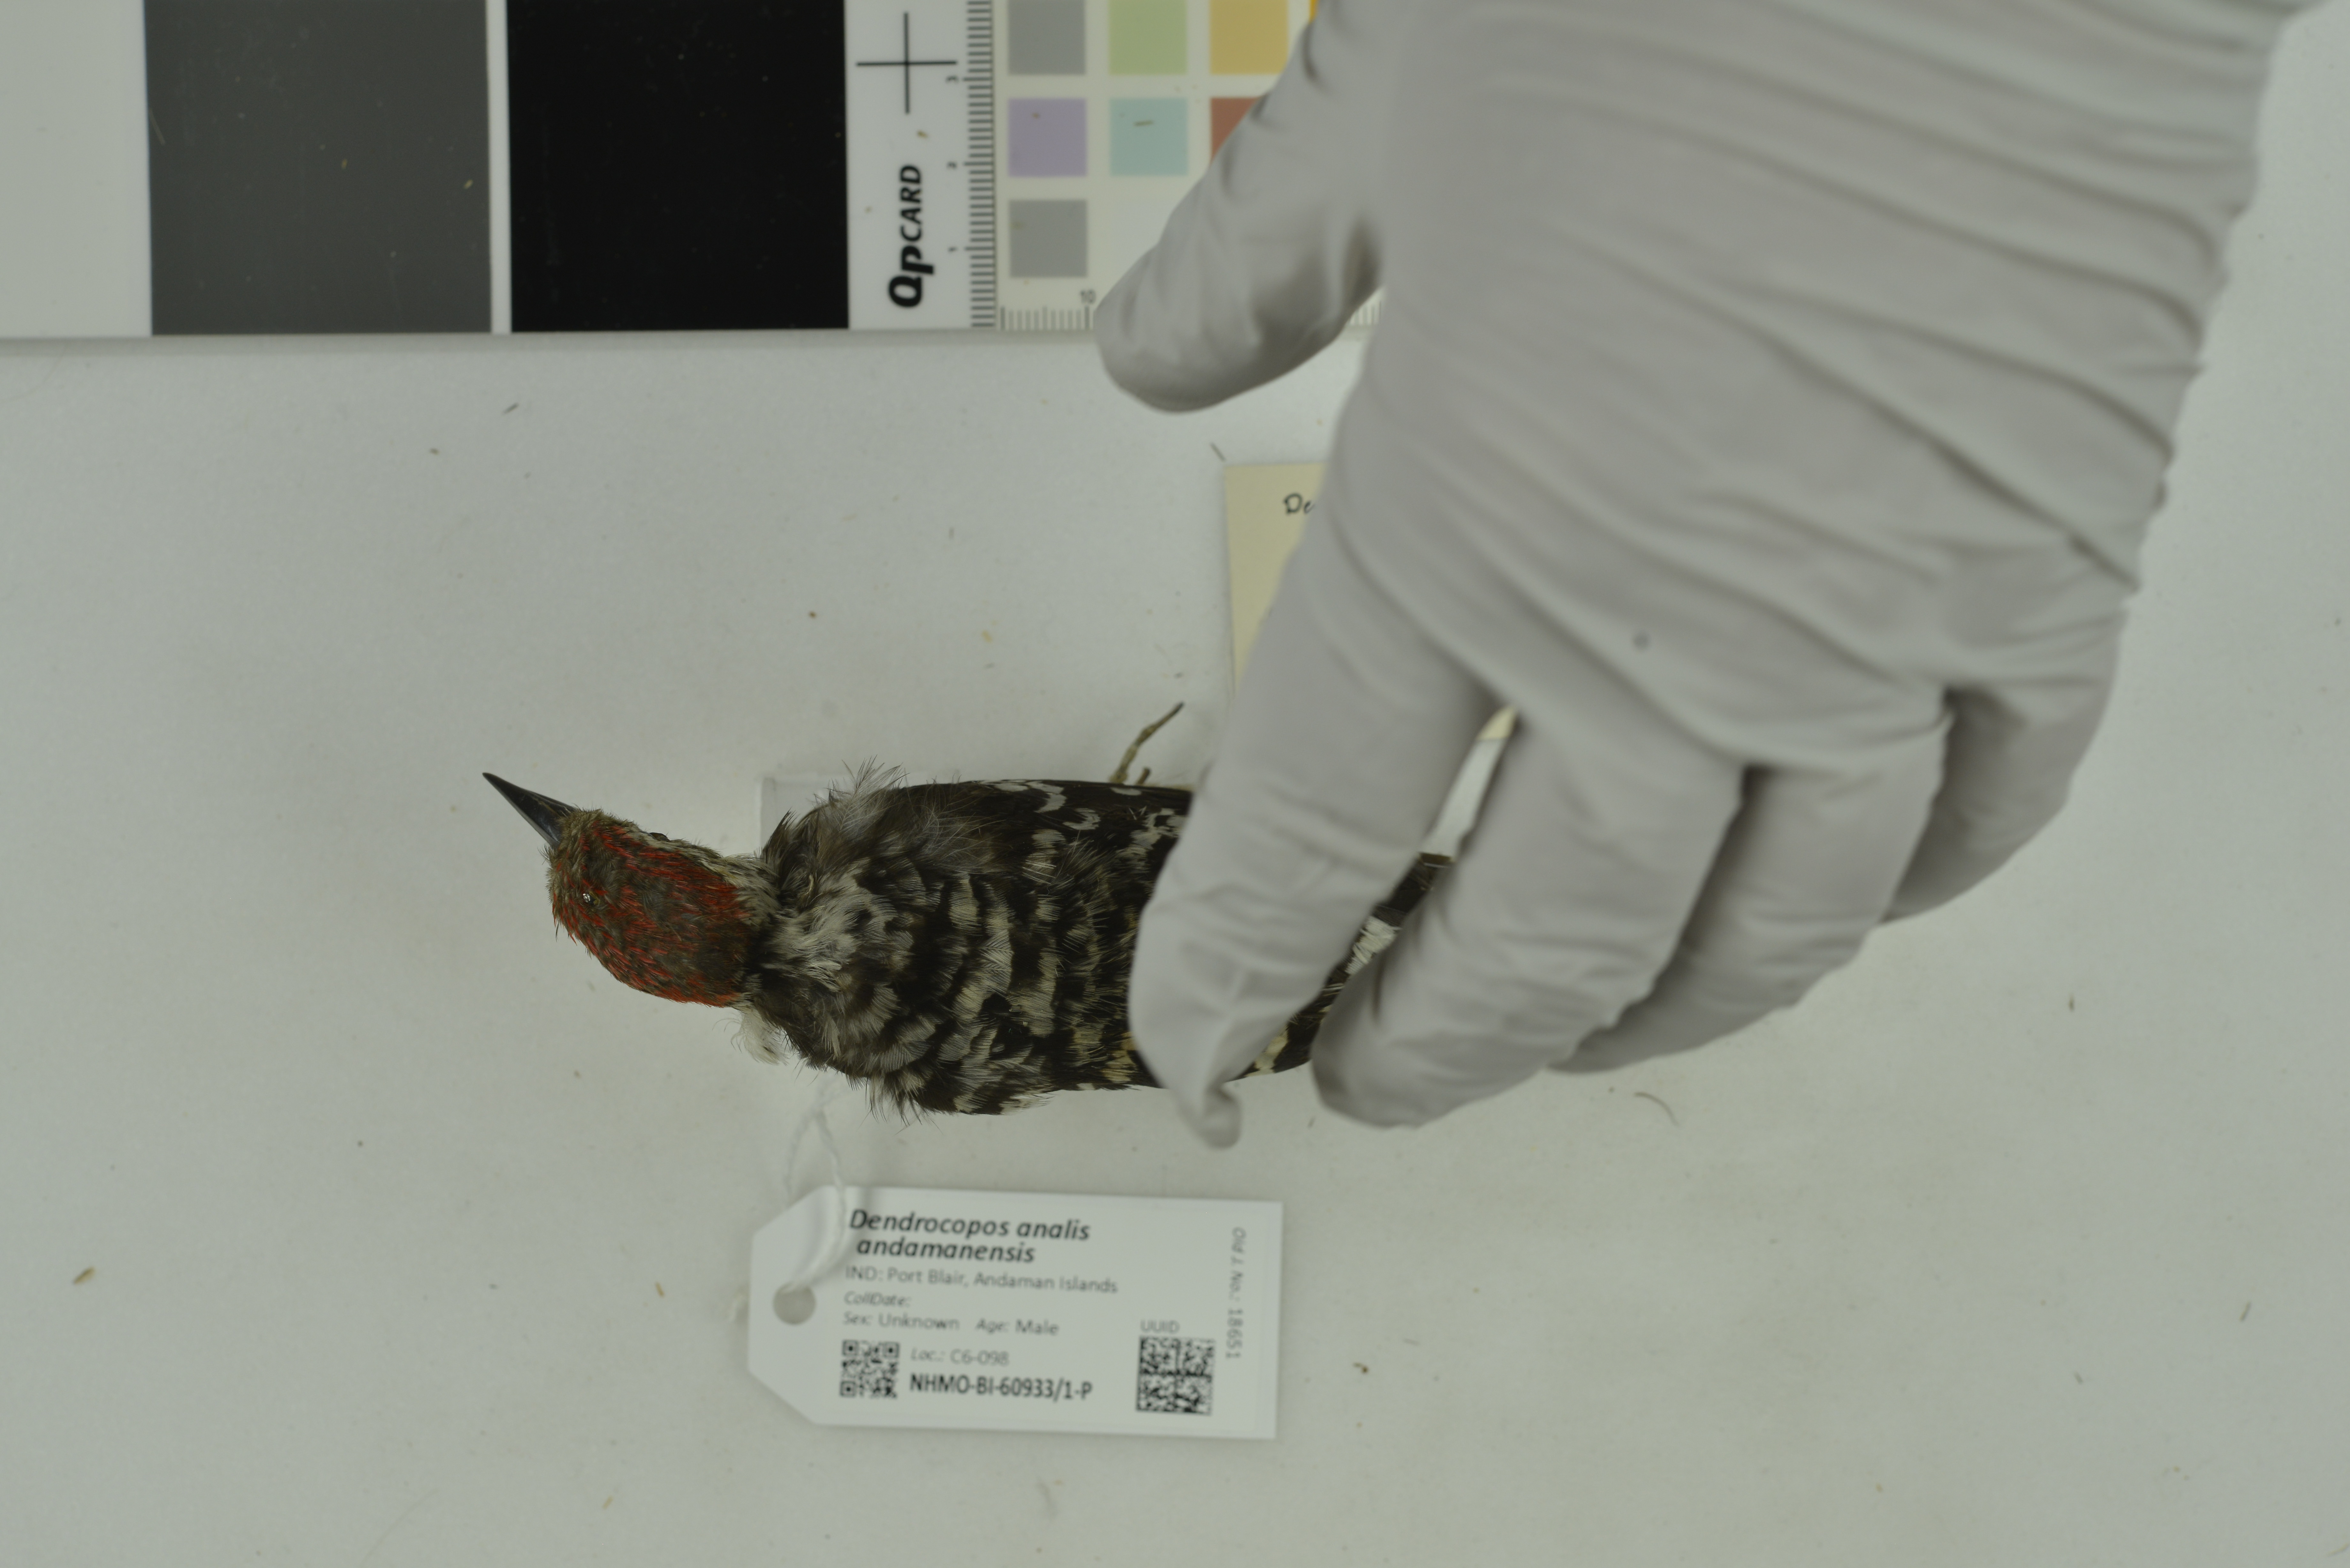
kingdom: Animalia
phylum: Chordata
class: Aves
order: Piciformes
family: Picidae
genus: Dendrocopos
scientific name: Dendrocopos analis
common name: Freckle-breasted woodpecker
